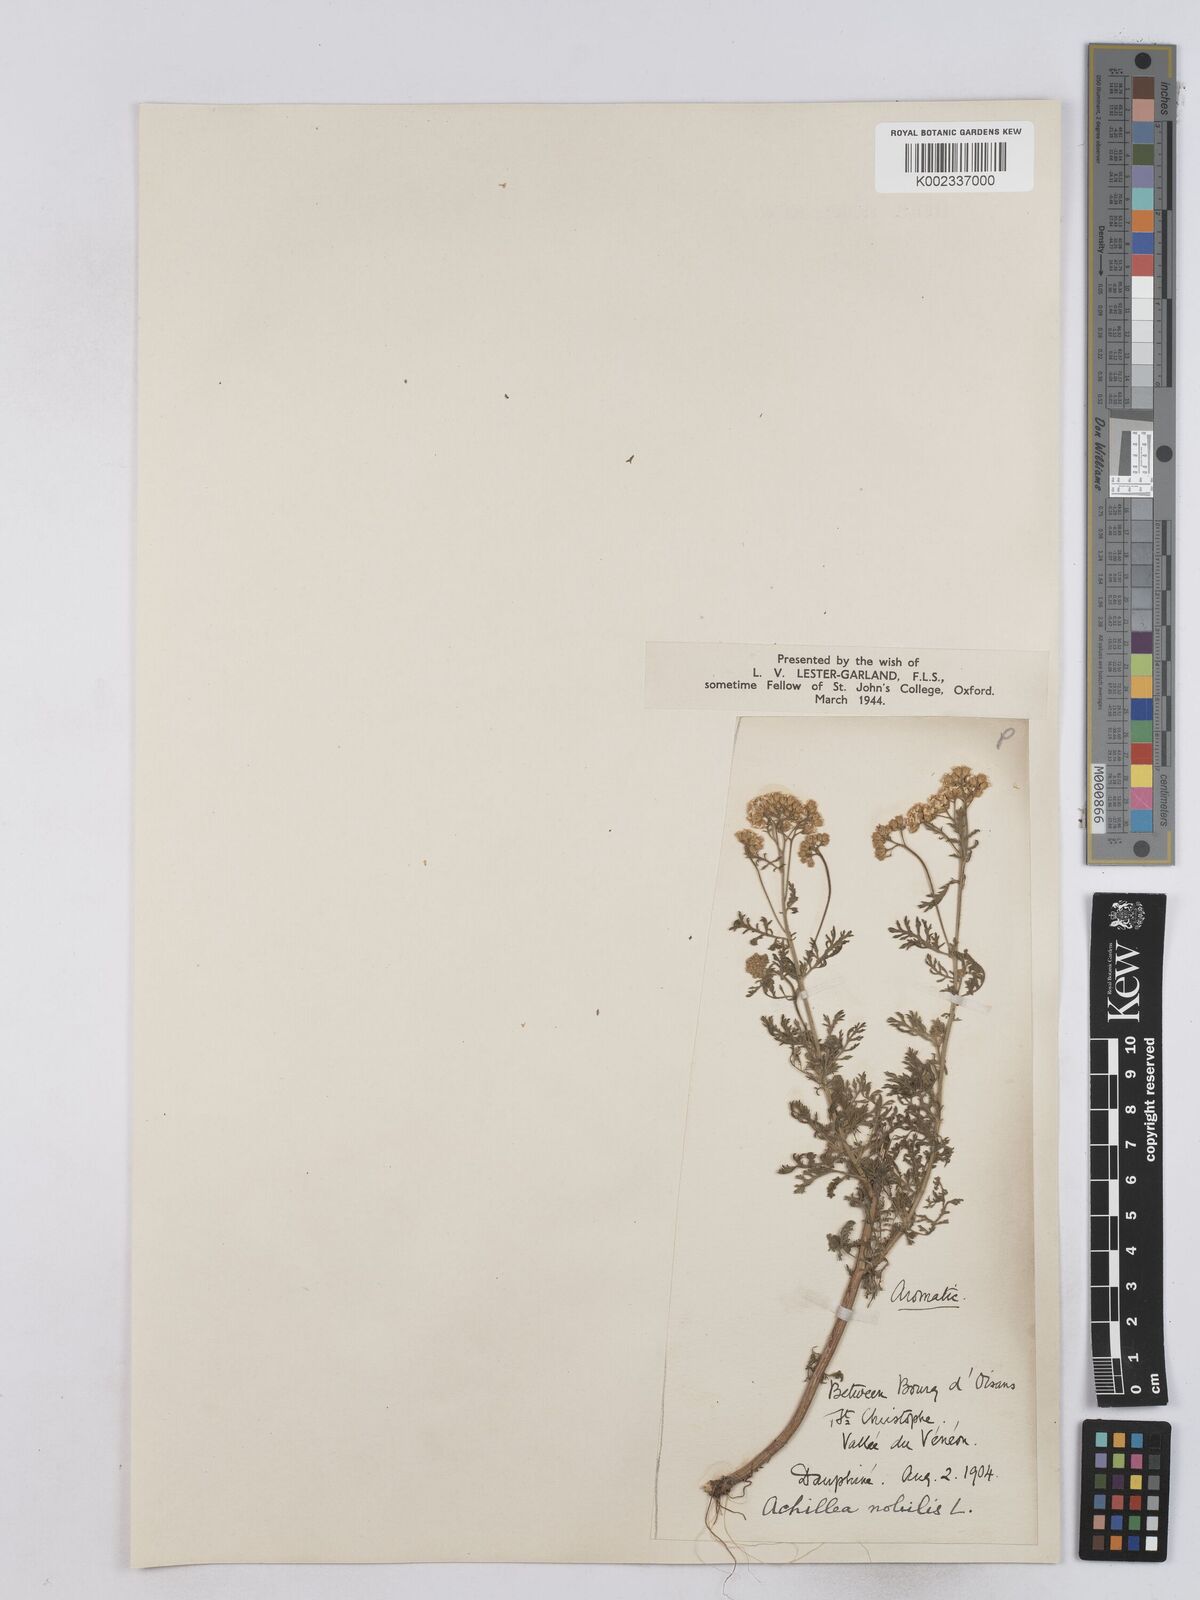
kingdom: Plantae
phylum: Tracheophyta
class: Magnoliopsida
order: Asterales
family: Asteraceae
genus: Achillea
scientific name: Achillea nobilis
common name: Noble yarrow
